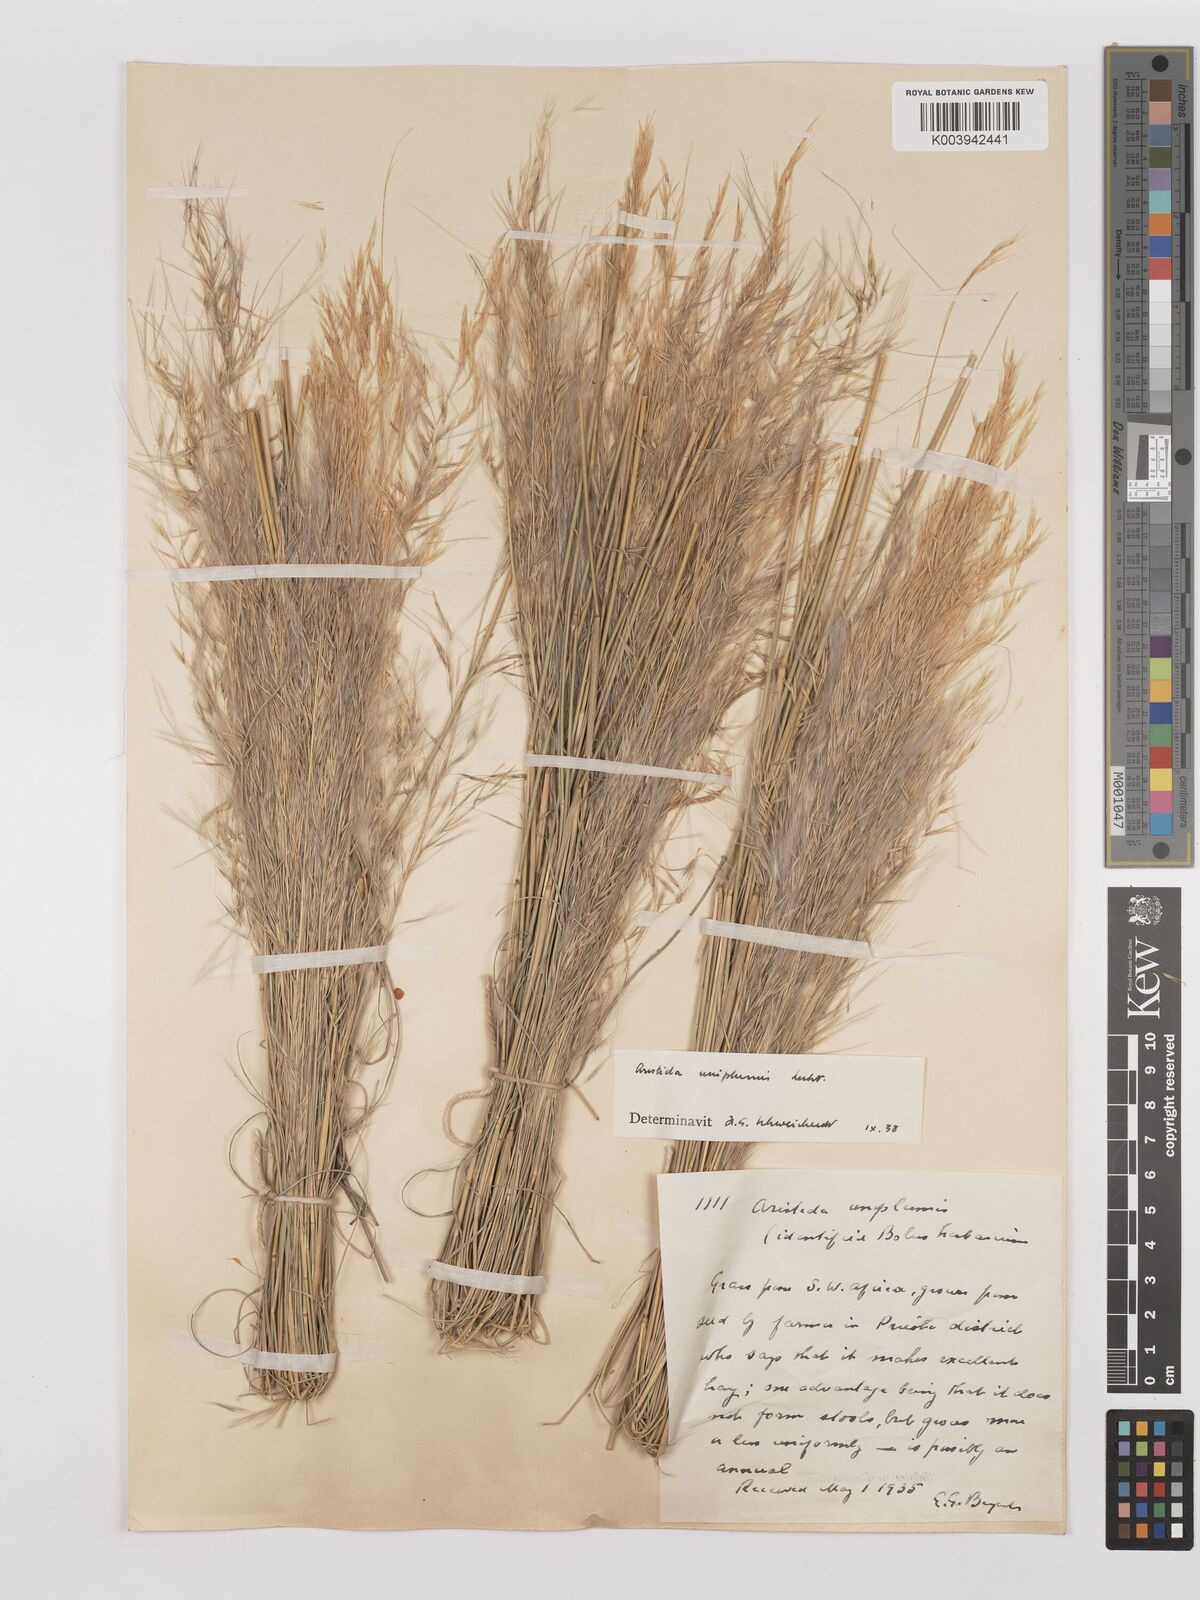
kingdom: Plantae
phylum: Tracheophyta
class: Liliopsida
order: Poales
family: Poaceae
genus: Stipagrostis
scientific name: Stipagrostis uniplumis
